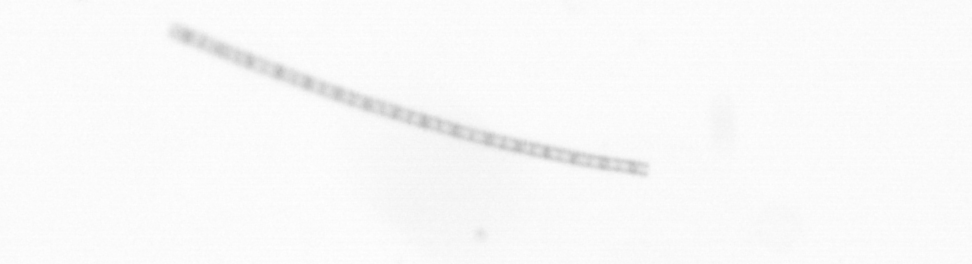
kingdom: Chromista
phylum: Ochrophyta
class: Bacillariophyceae
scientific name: Bacillariophyceae
